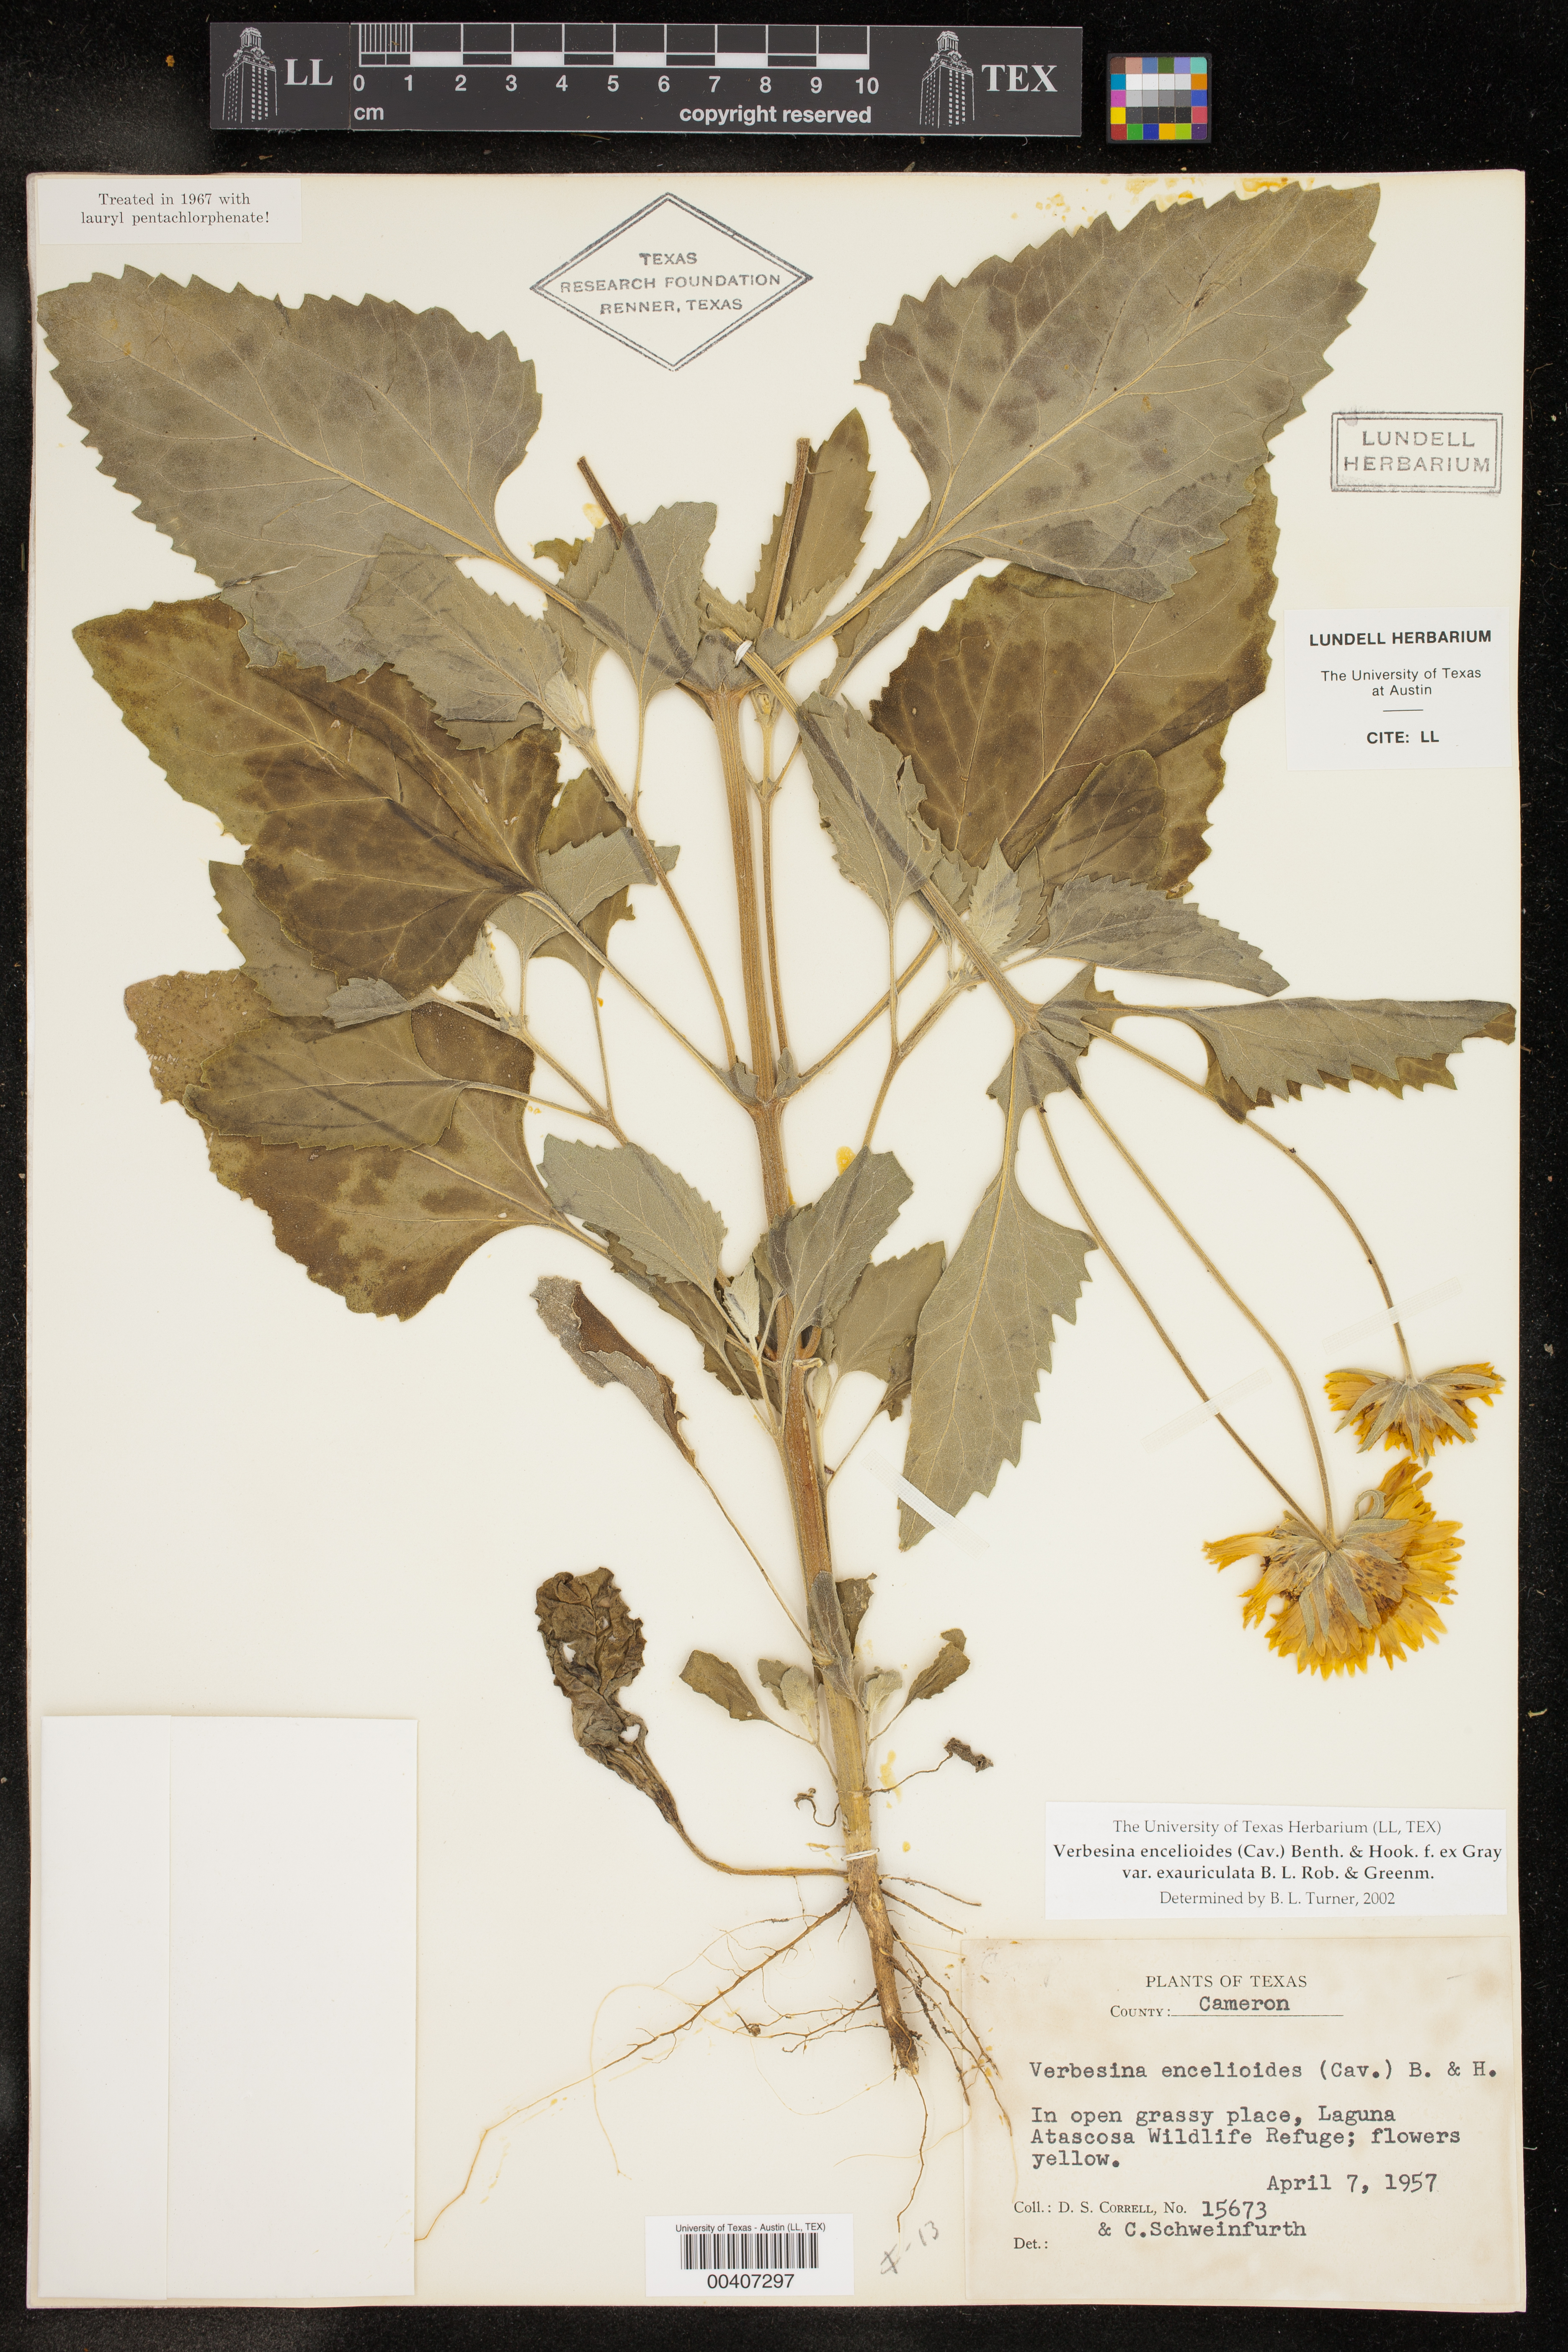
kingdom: Plantae
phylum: Tracheophyta
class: Magnoliopsida
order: Asterales
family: Asteraceae
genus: Verbesina
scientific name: Verbesina encelioides
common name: Golden crownbeard
